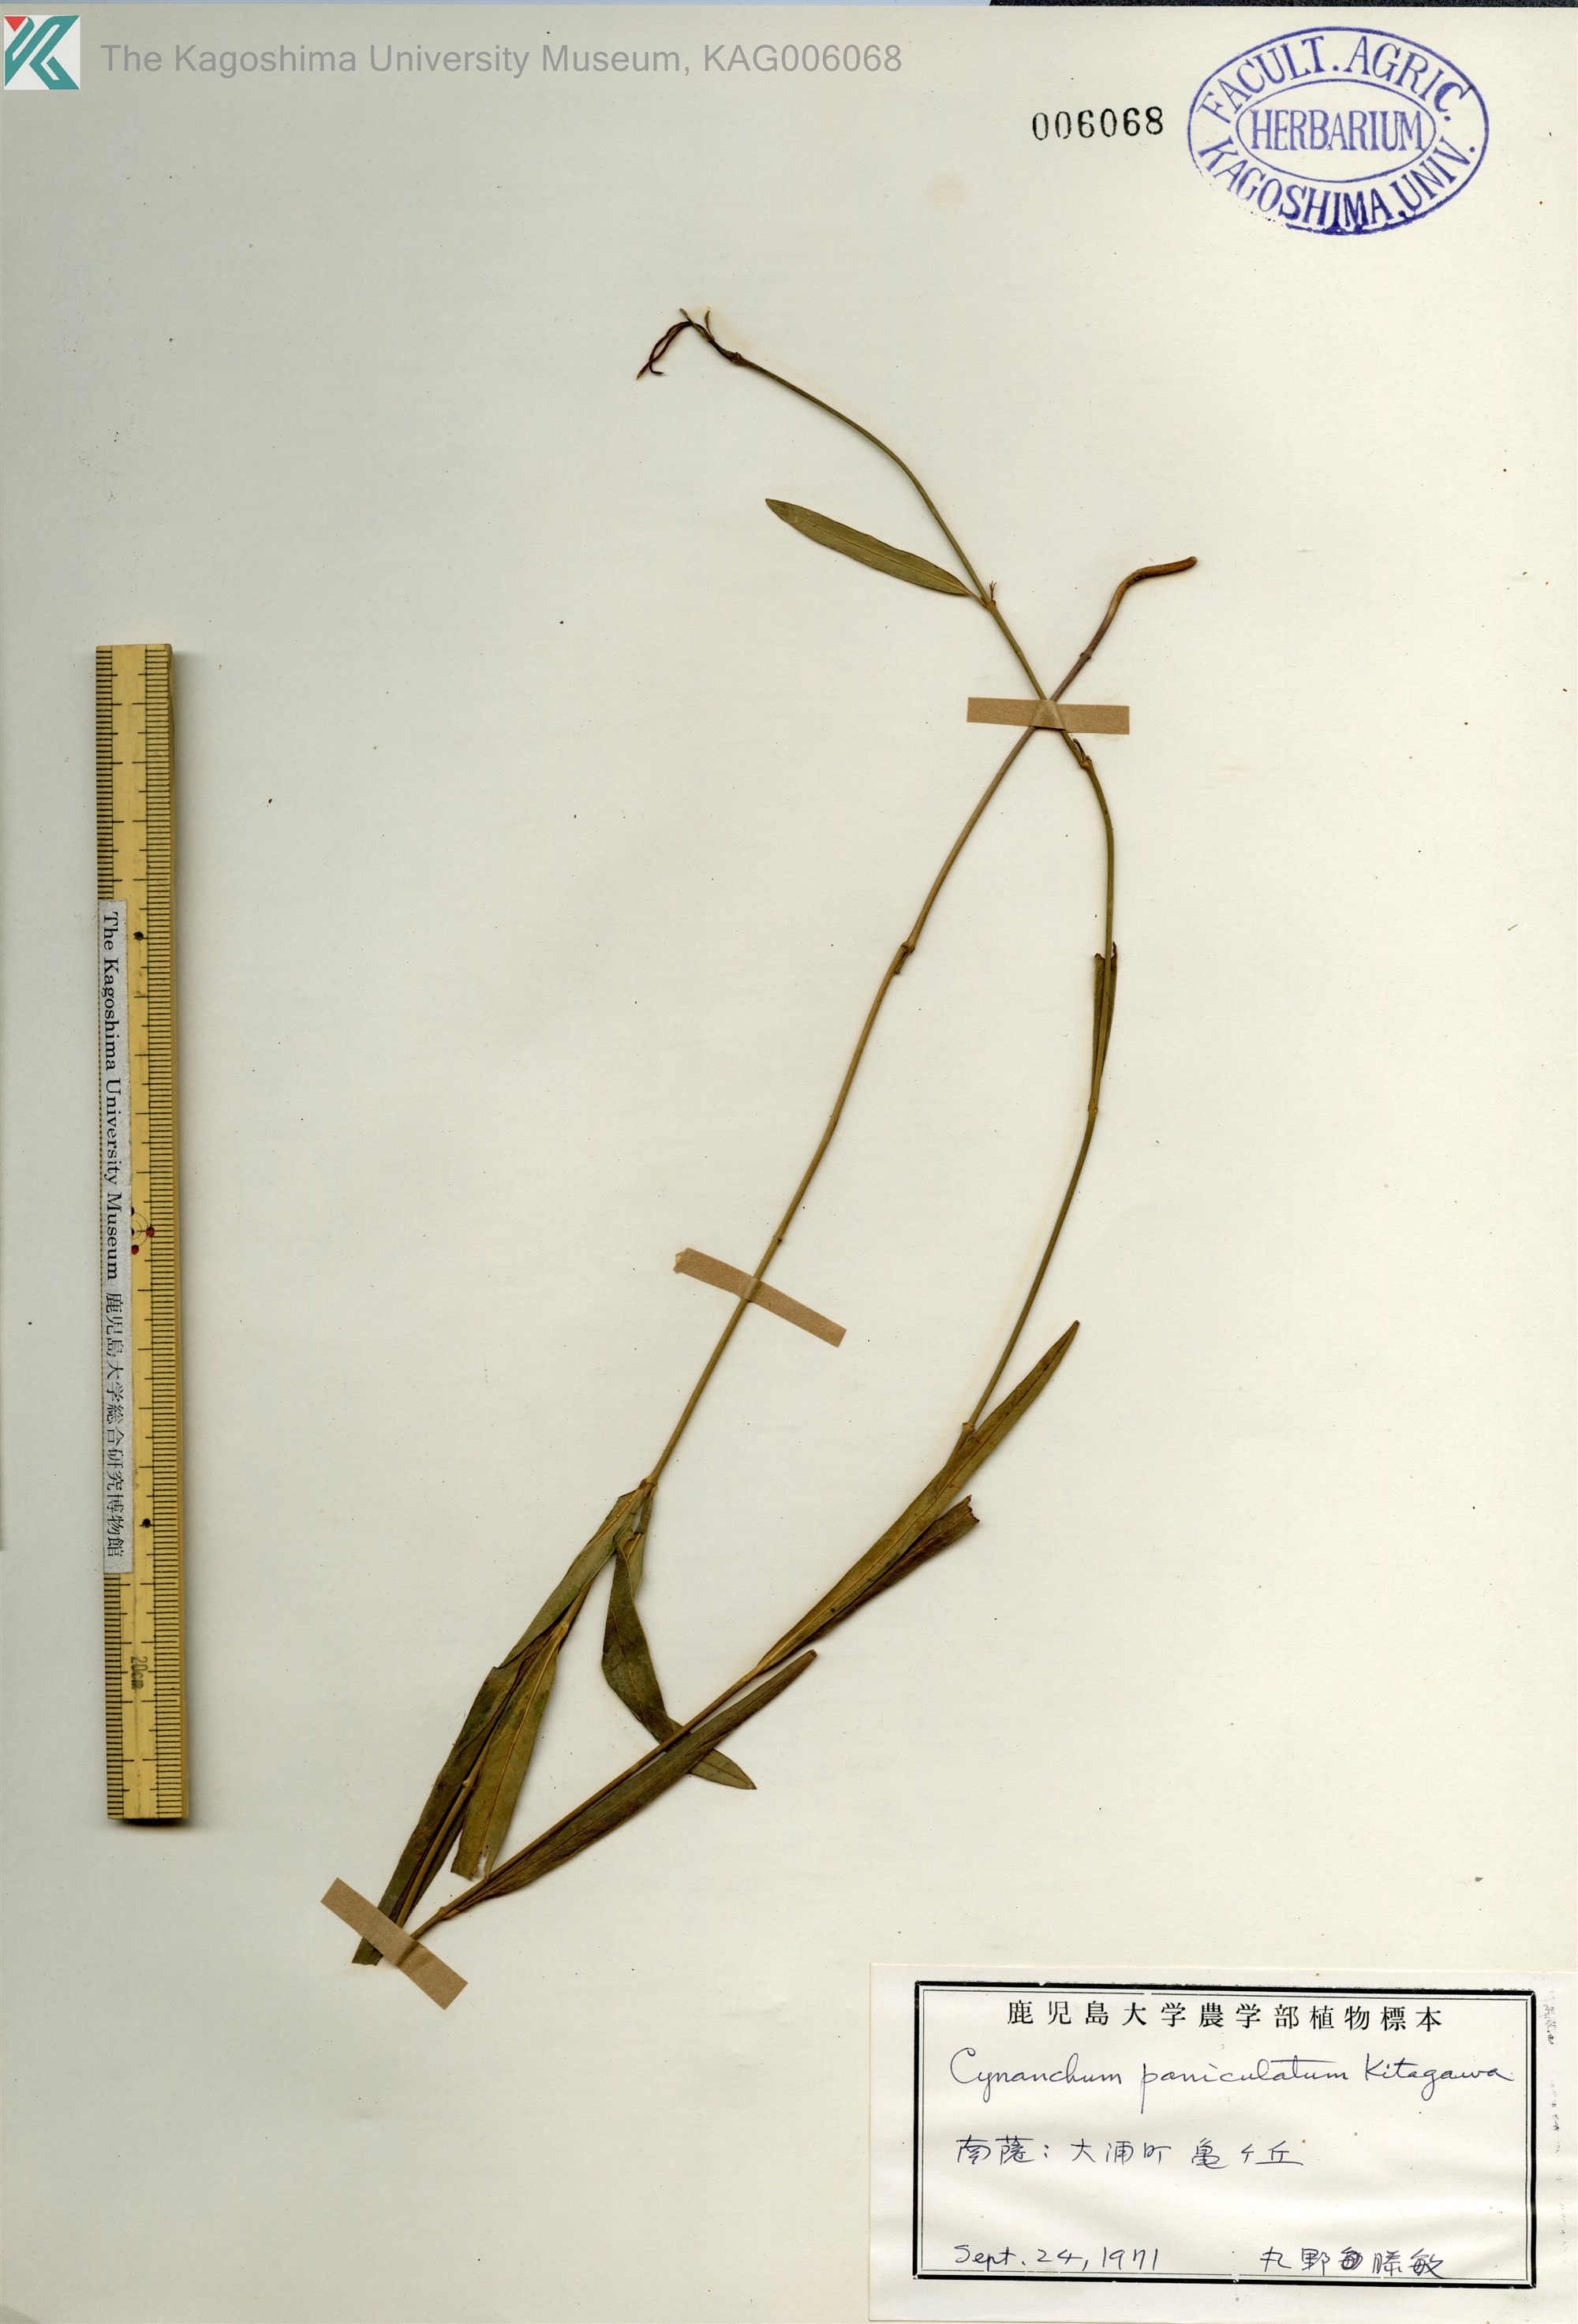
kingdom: Plantae
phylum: Tracheophyta
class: Magnoliopsida
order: Gentianales
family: Apocynaceae
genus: Vincetoxicum
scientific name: Vincetoxicum mukdenense
